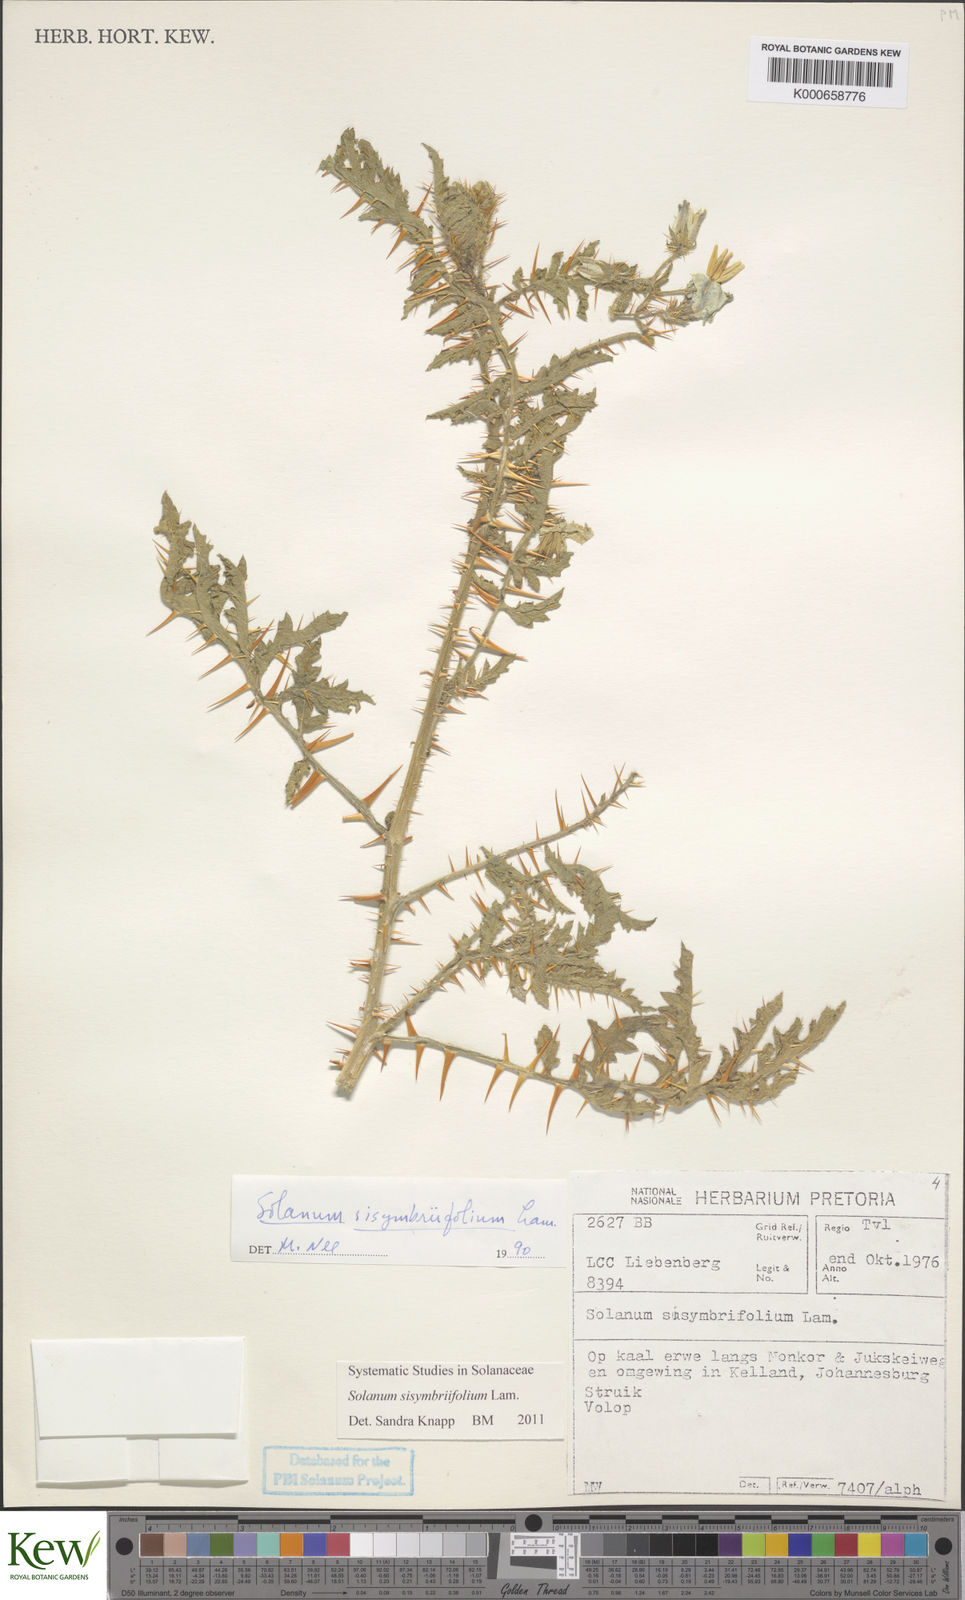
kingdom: Plantae
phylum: Tracheophyta
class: Magnoliopsida
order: Solanales
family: Solanaceae
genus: Solanum
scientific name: Solanum sisymbriifolium
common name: Red buffalo-bur
